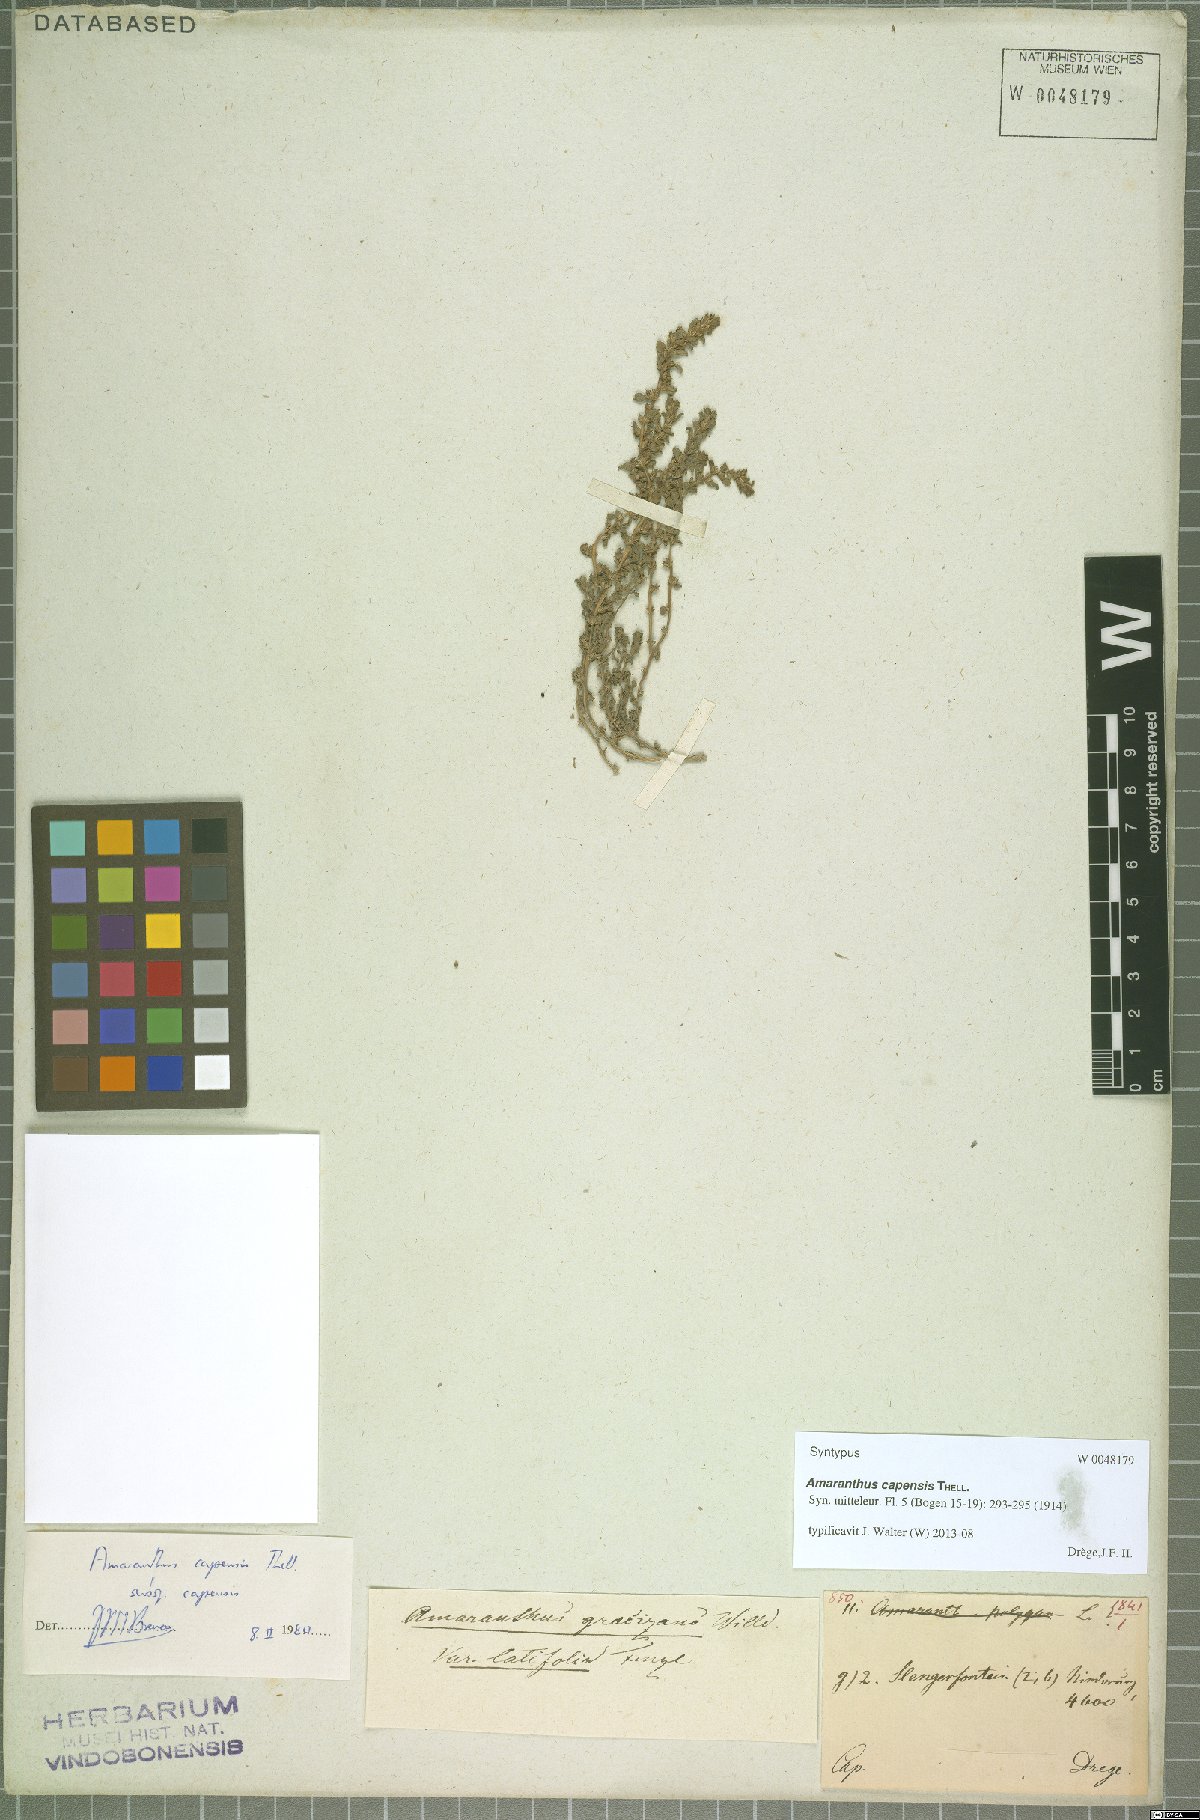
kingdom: Plantae
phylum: Tracheophyta
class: Magnoliopsida
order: Caryophyllales
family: Amaranthaceae
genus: Amaranthus
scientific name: Amaranthus capensis
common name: Cape pigweed
